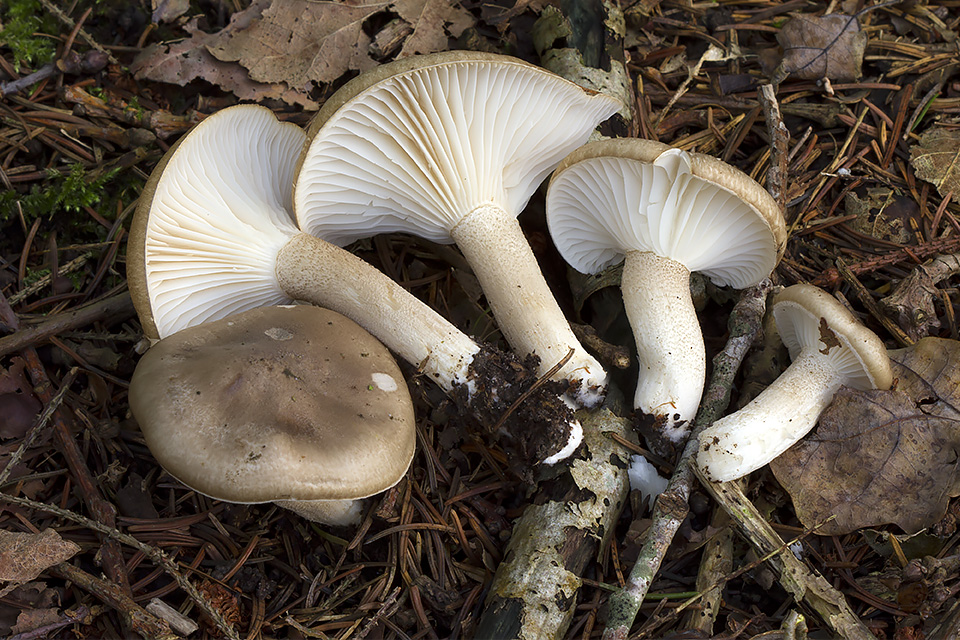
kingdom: Fungi
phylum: Basidiomycota
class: Agaricomycetes
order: Agaricales
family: Hygrophoraceae
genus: Hygrophorus
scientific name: Hygrophorus agathosmus
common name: vellugtende sneglehat
